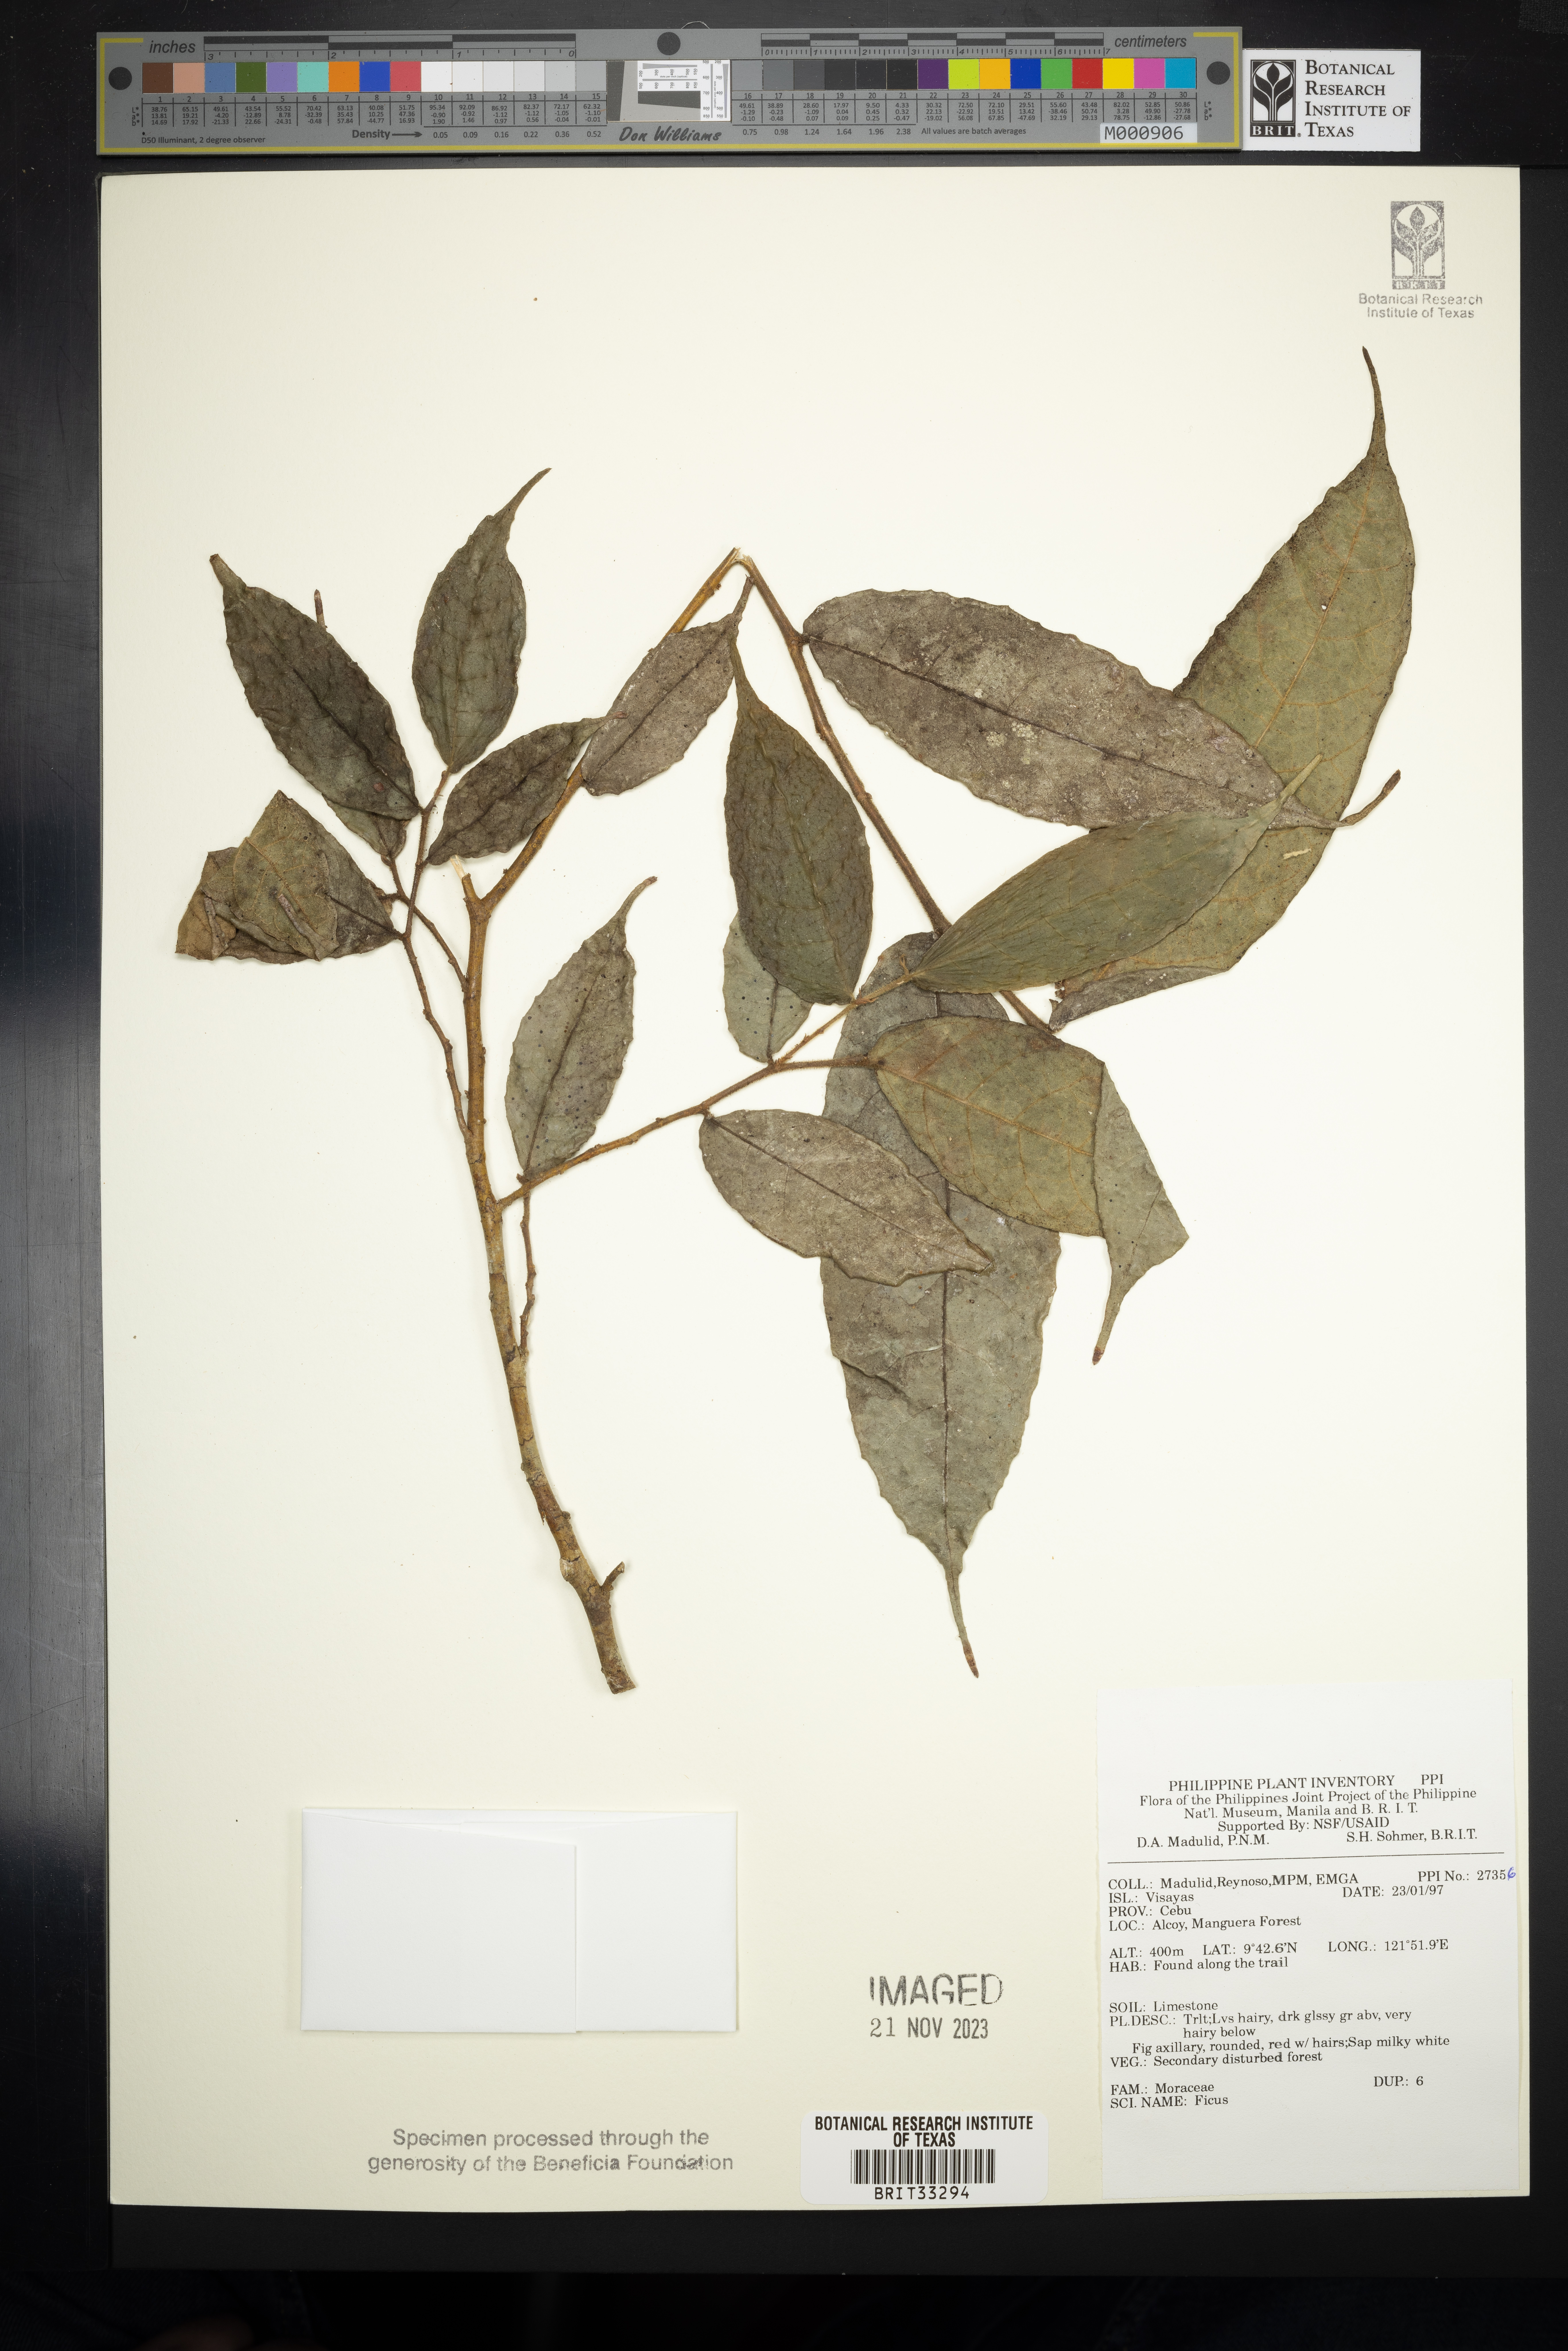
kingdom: Plantae
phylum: Tracheophyta
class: Magnoliopsida
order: Rosales
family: Moraceae
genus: Ficus
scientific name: Ficus
